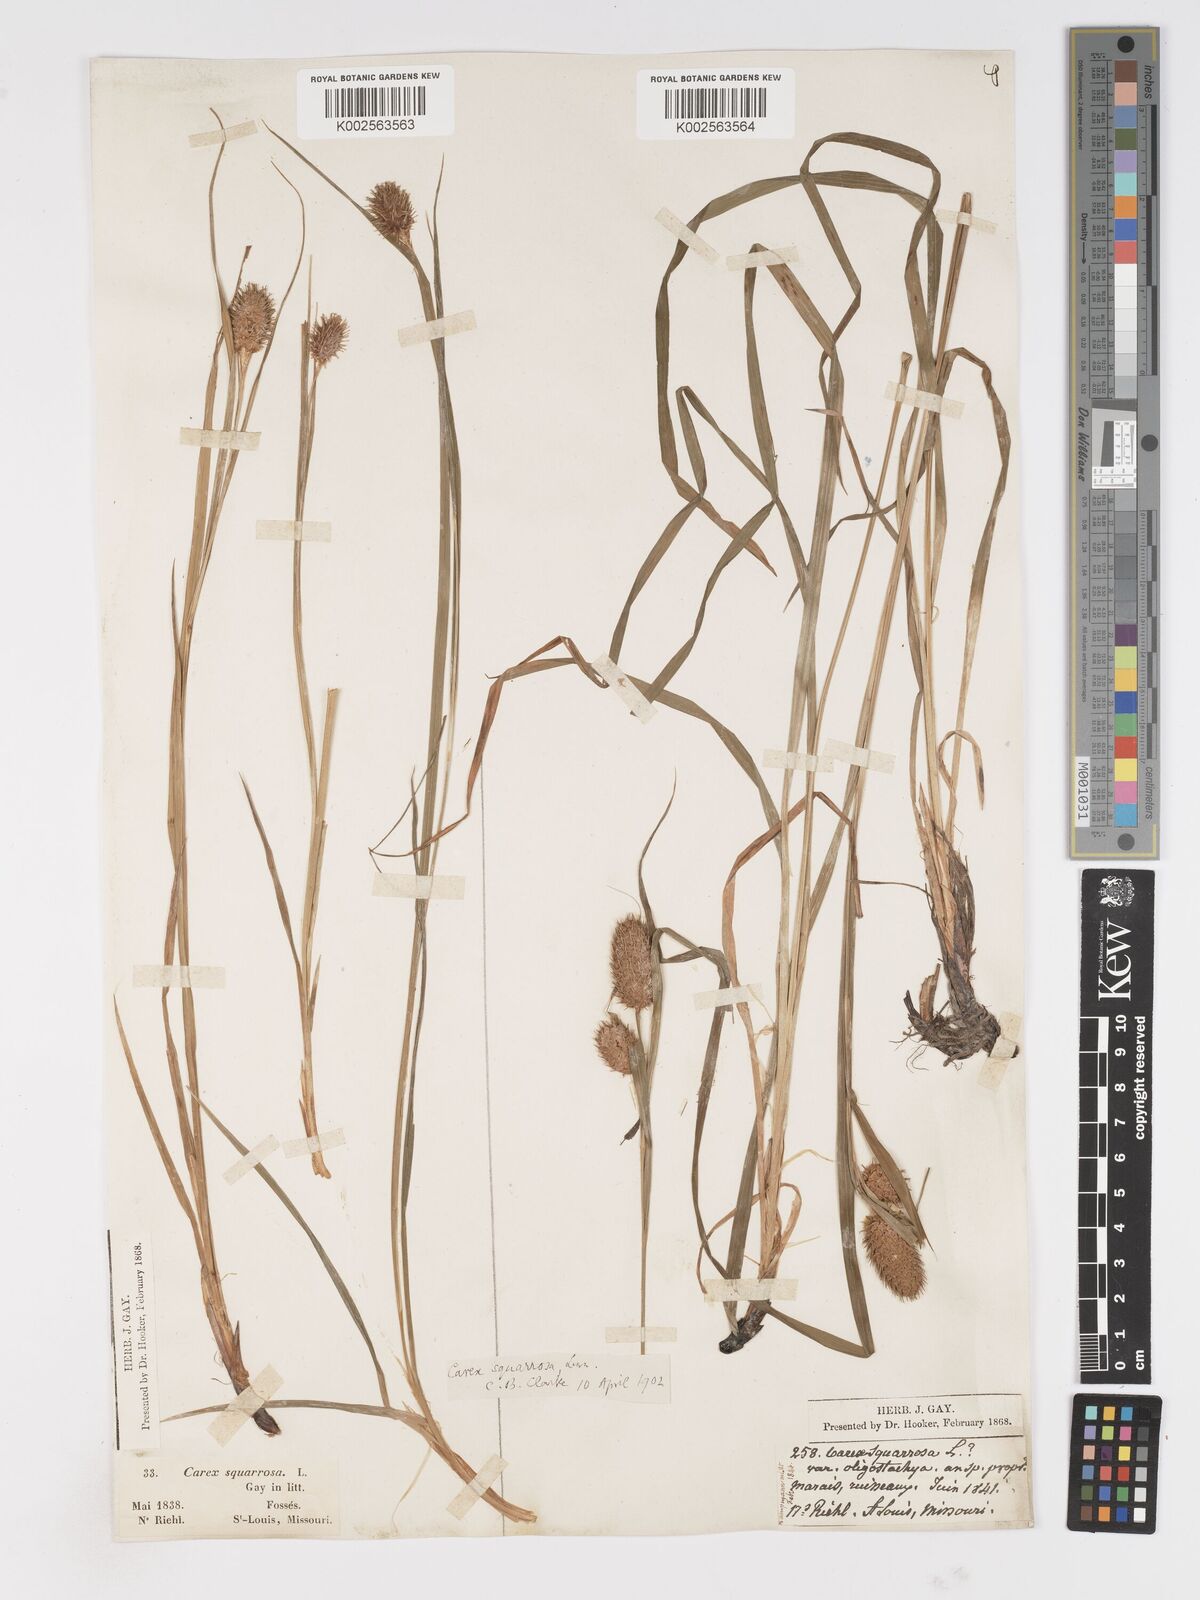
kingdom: Plantae
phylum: Tracheophyta
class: Liliopsida
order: Poales
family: Cyperaceae
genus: Carex
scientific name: Carex squarrosa
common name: Narrow-leaved cattail sedge
